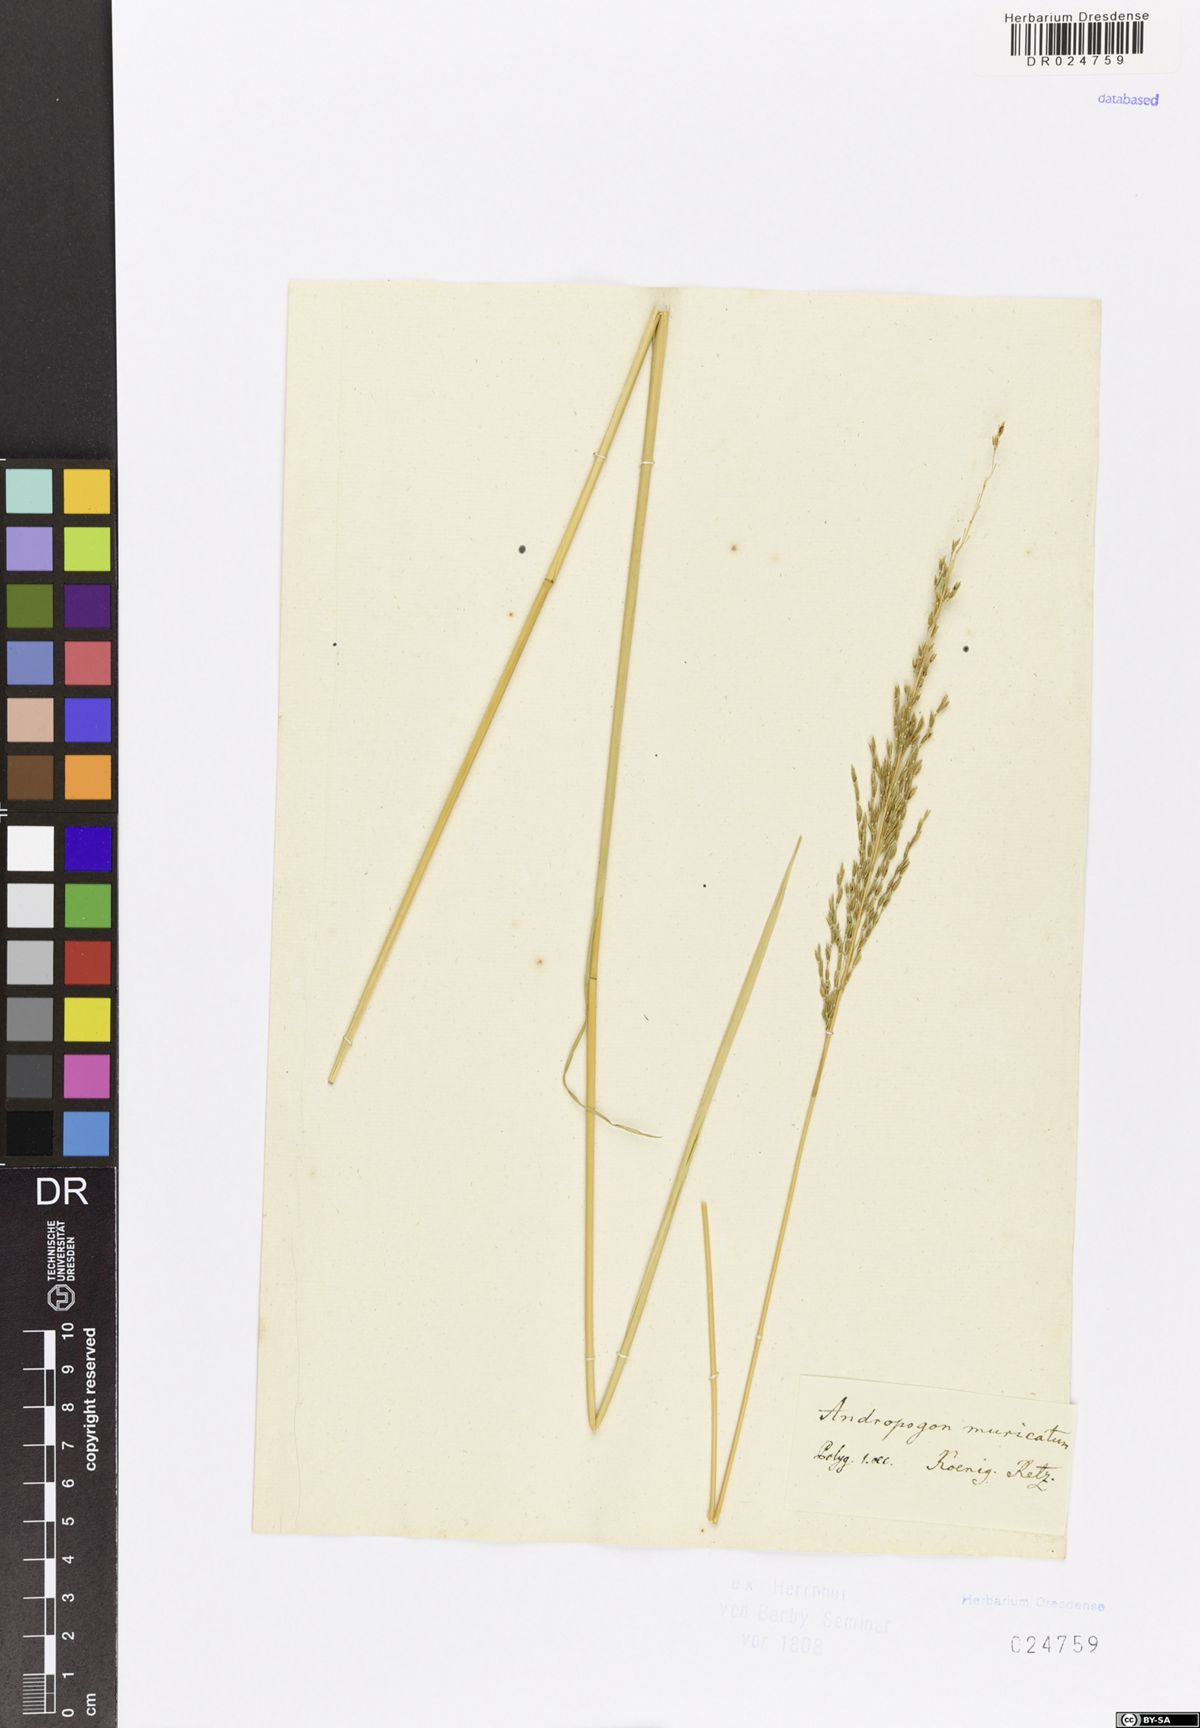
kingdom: Plantae
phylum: Tracheophyta
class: Liliopsida
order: Poales
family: Poaceae
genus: Chrysopogon
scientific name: Chrysopogon zizanioides
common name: False beardgrass
